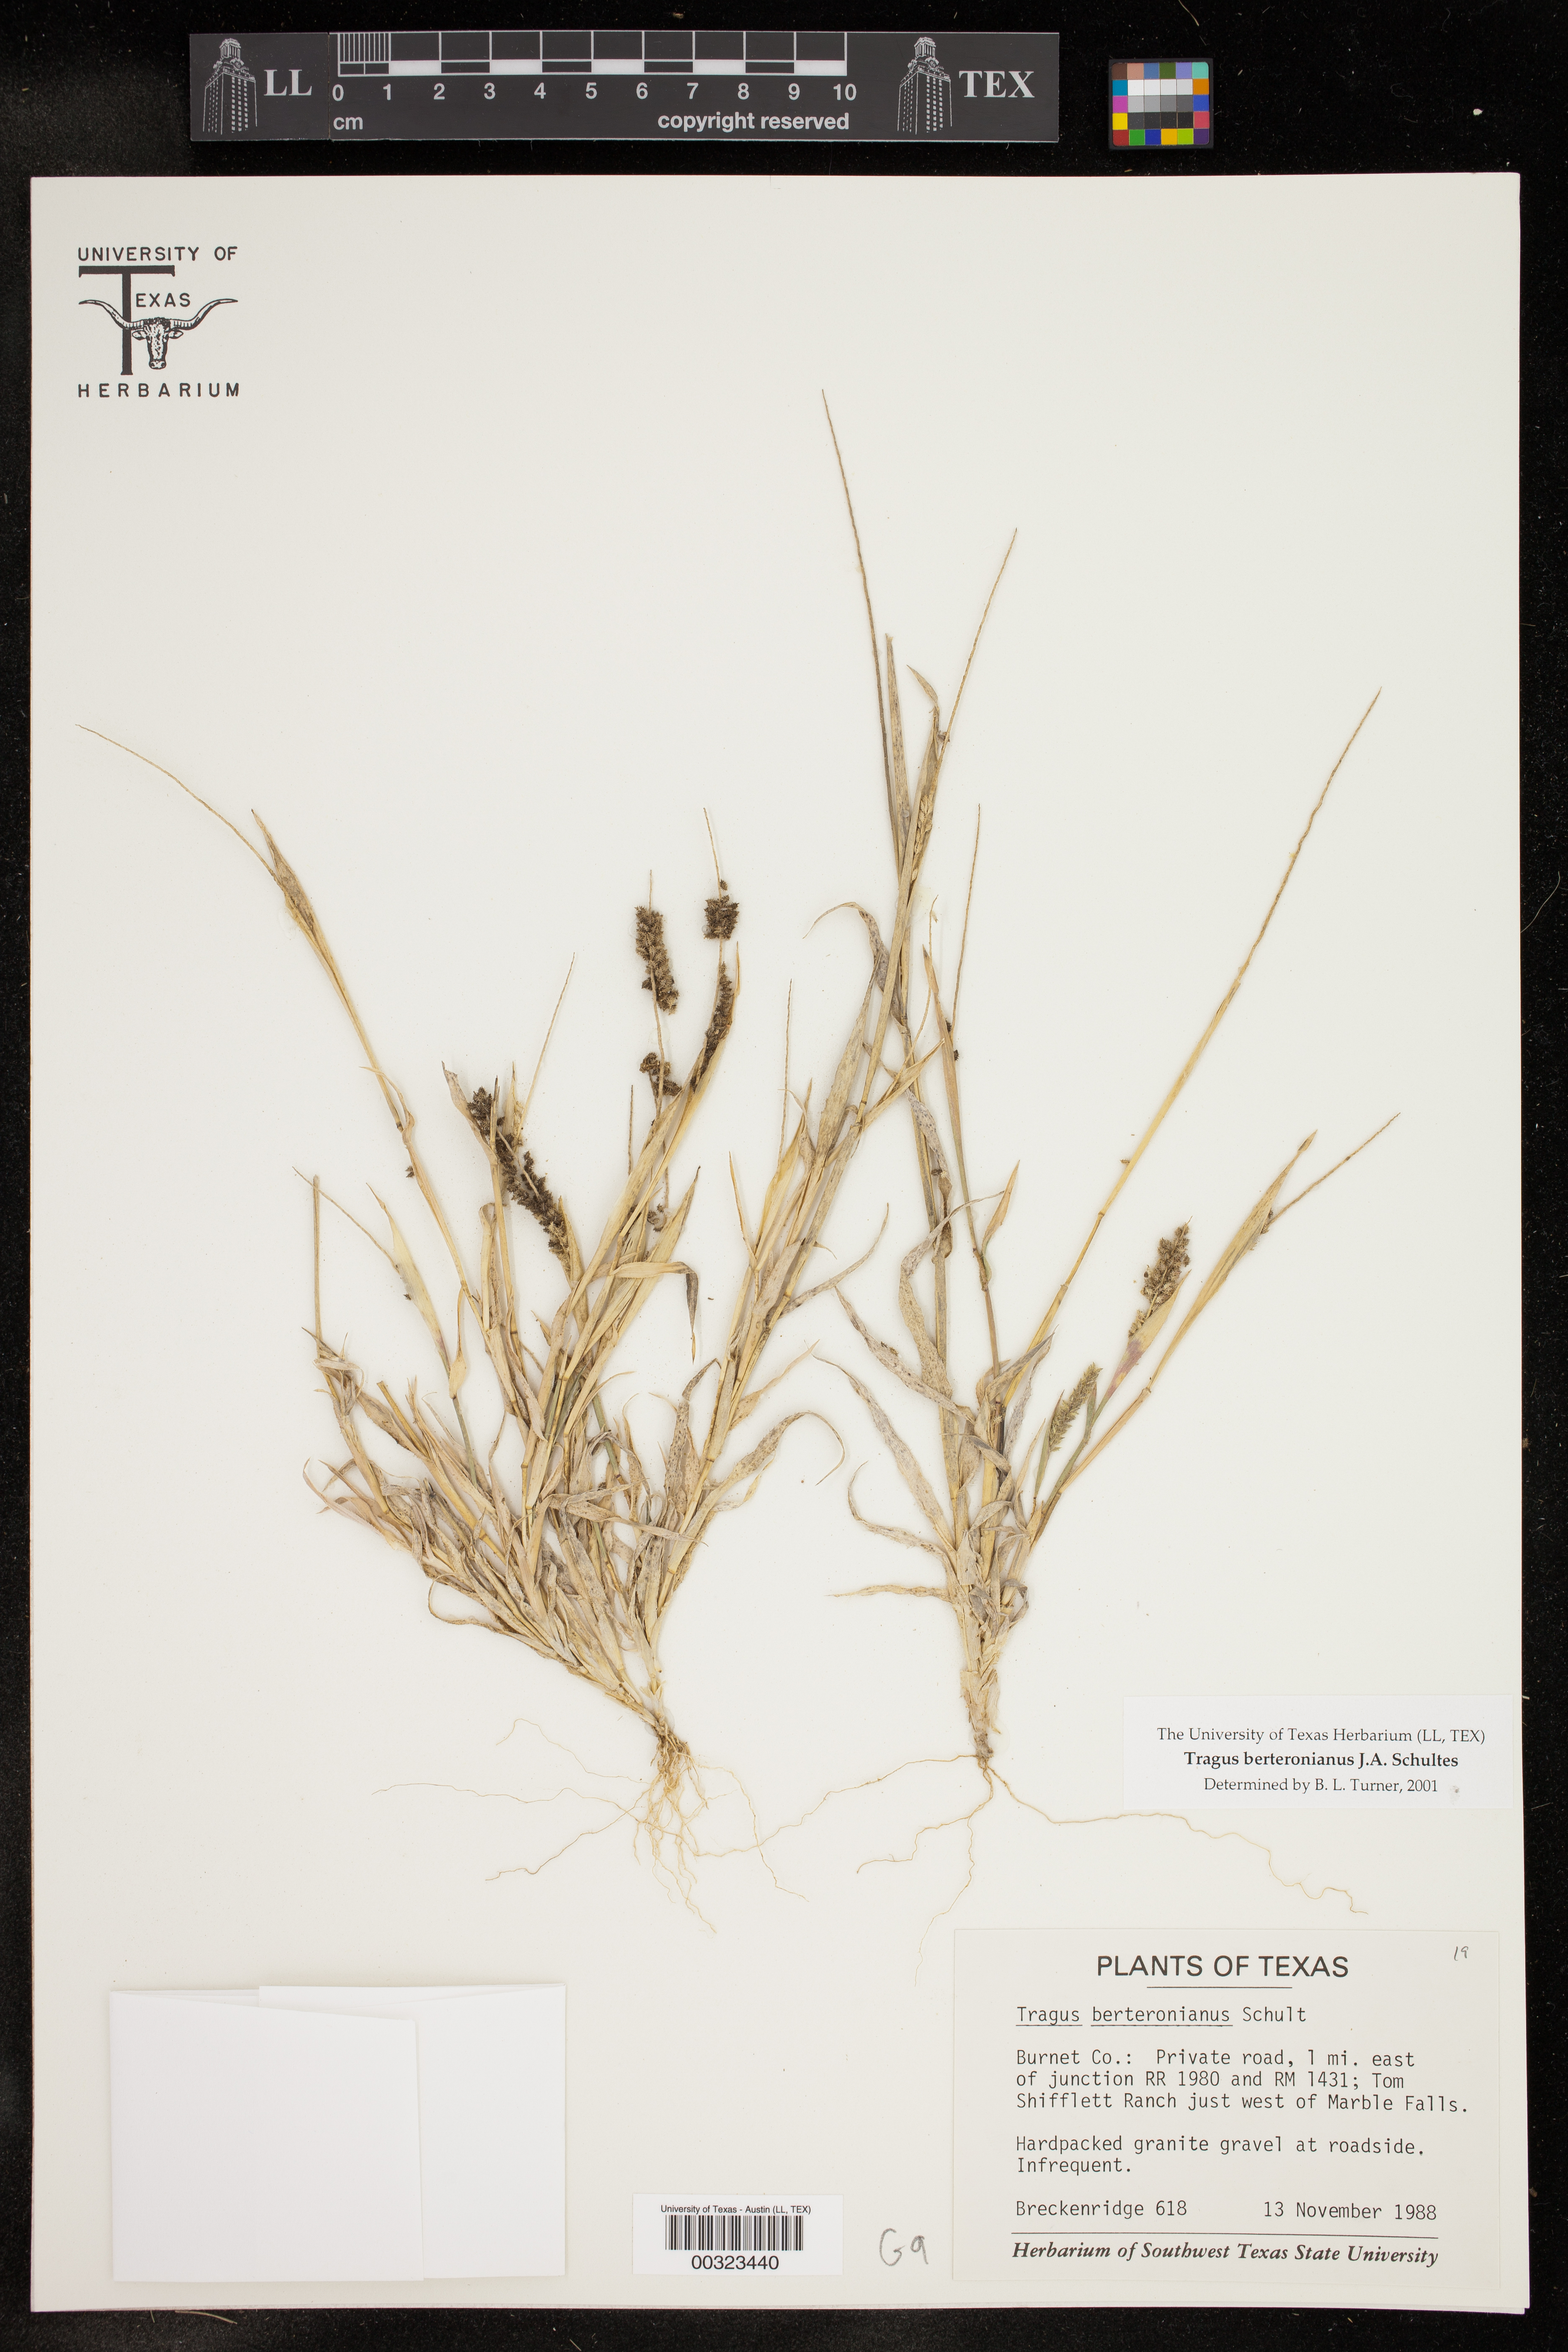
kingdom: Plantae
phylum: Tracheophyta
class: Liliopsida
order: Poales
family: Poaceae
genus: Tragus
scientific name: Tragus berteronianus
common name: African bur-grass
